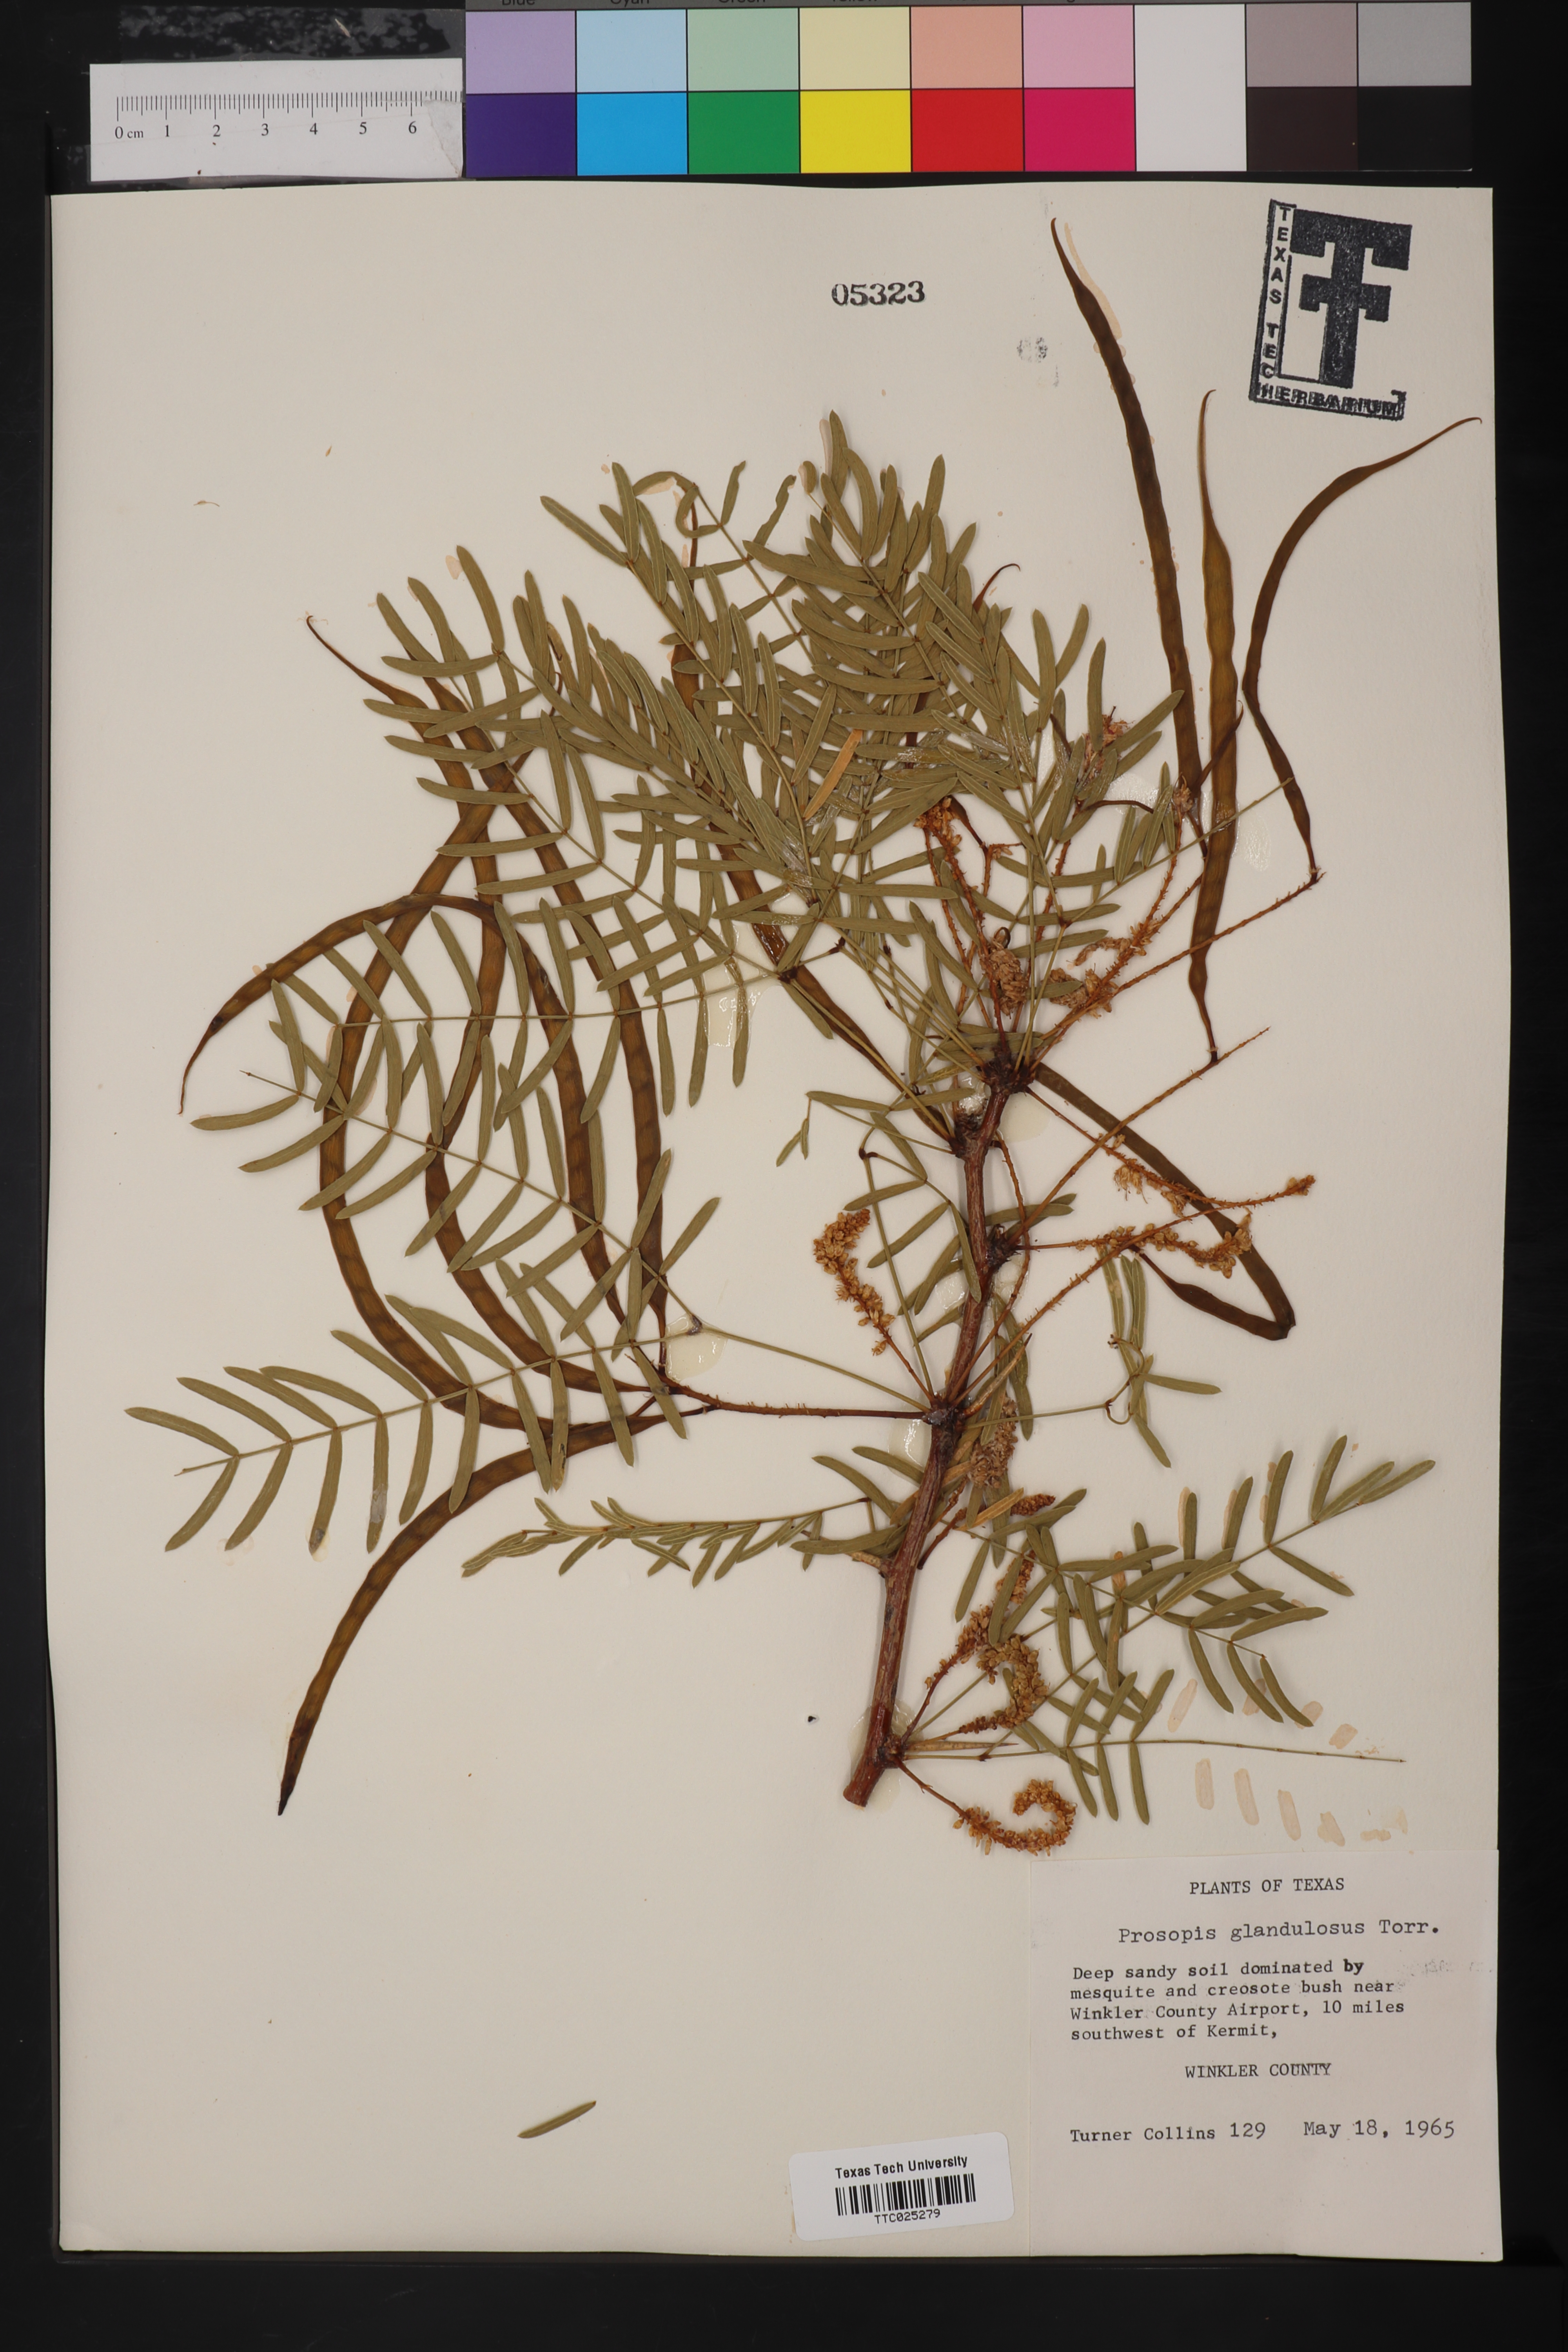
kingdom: Plantae
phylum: Tracheophyta
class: Magnoliopsida
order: Fabales
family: Fabaceae
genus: Prosopis
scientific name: Prosopis glandulosa
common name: Honey mesquite
